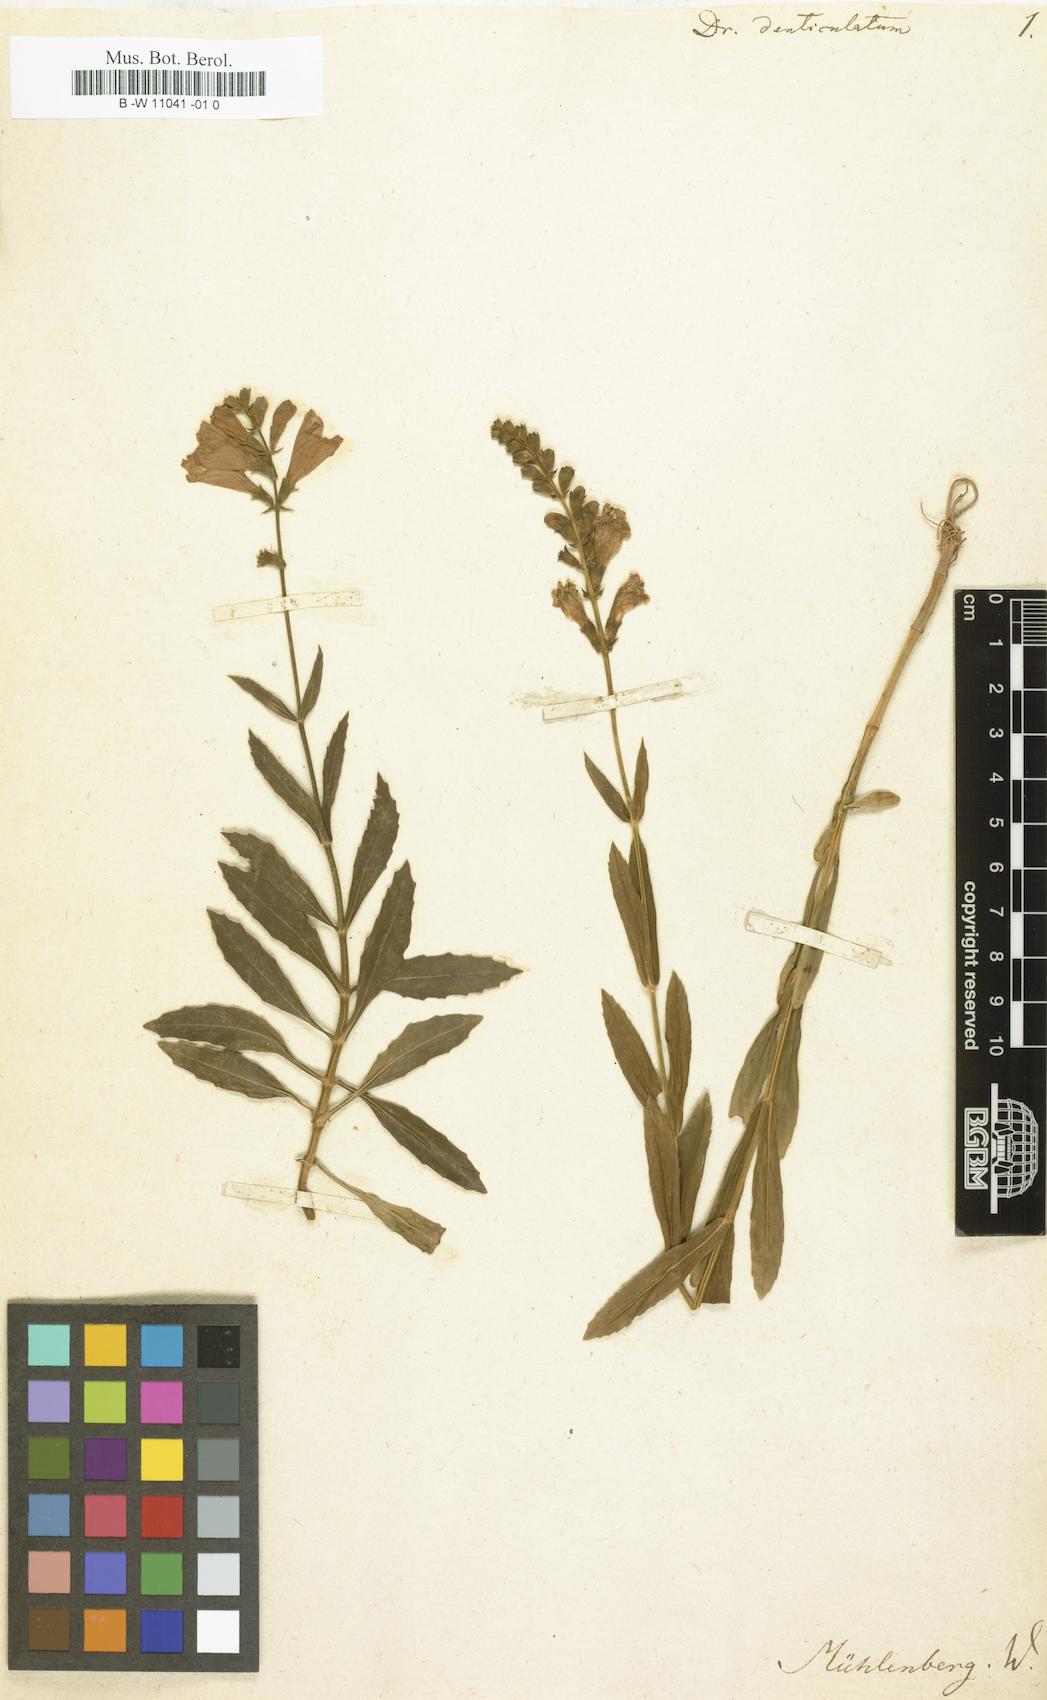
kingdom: Plantae
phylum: Tracheophyta
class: Magnoliopsida
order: Lamiales
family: Lamiaceae
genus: Physostegia
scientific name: Physostegia virginiana
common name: Obedient-plant
